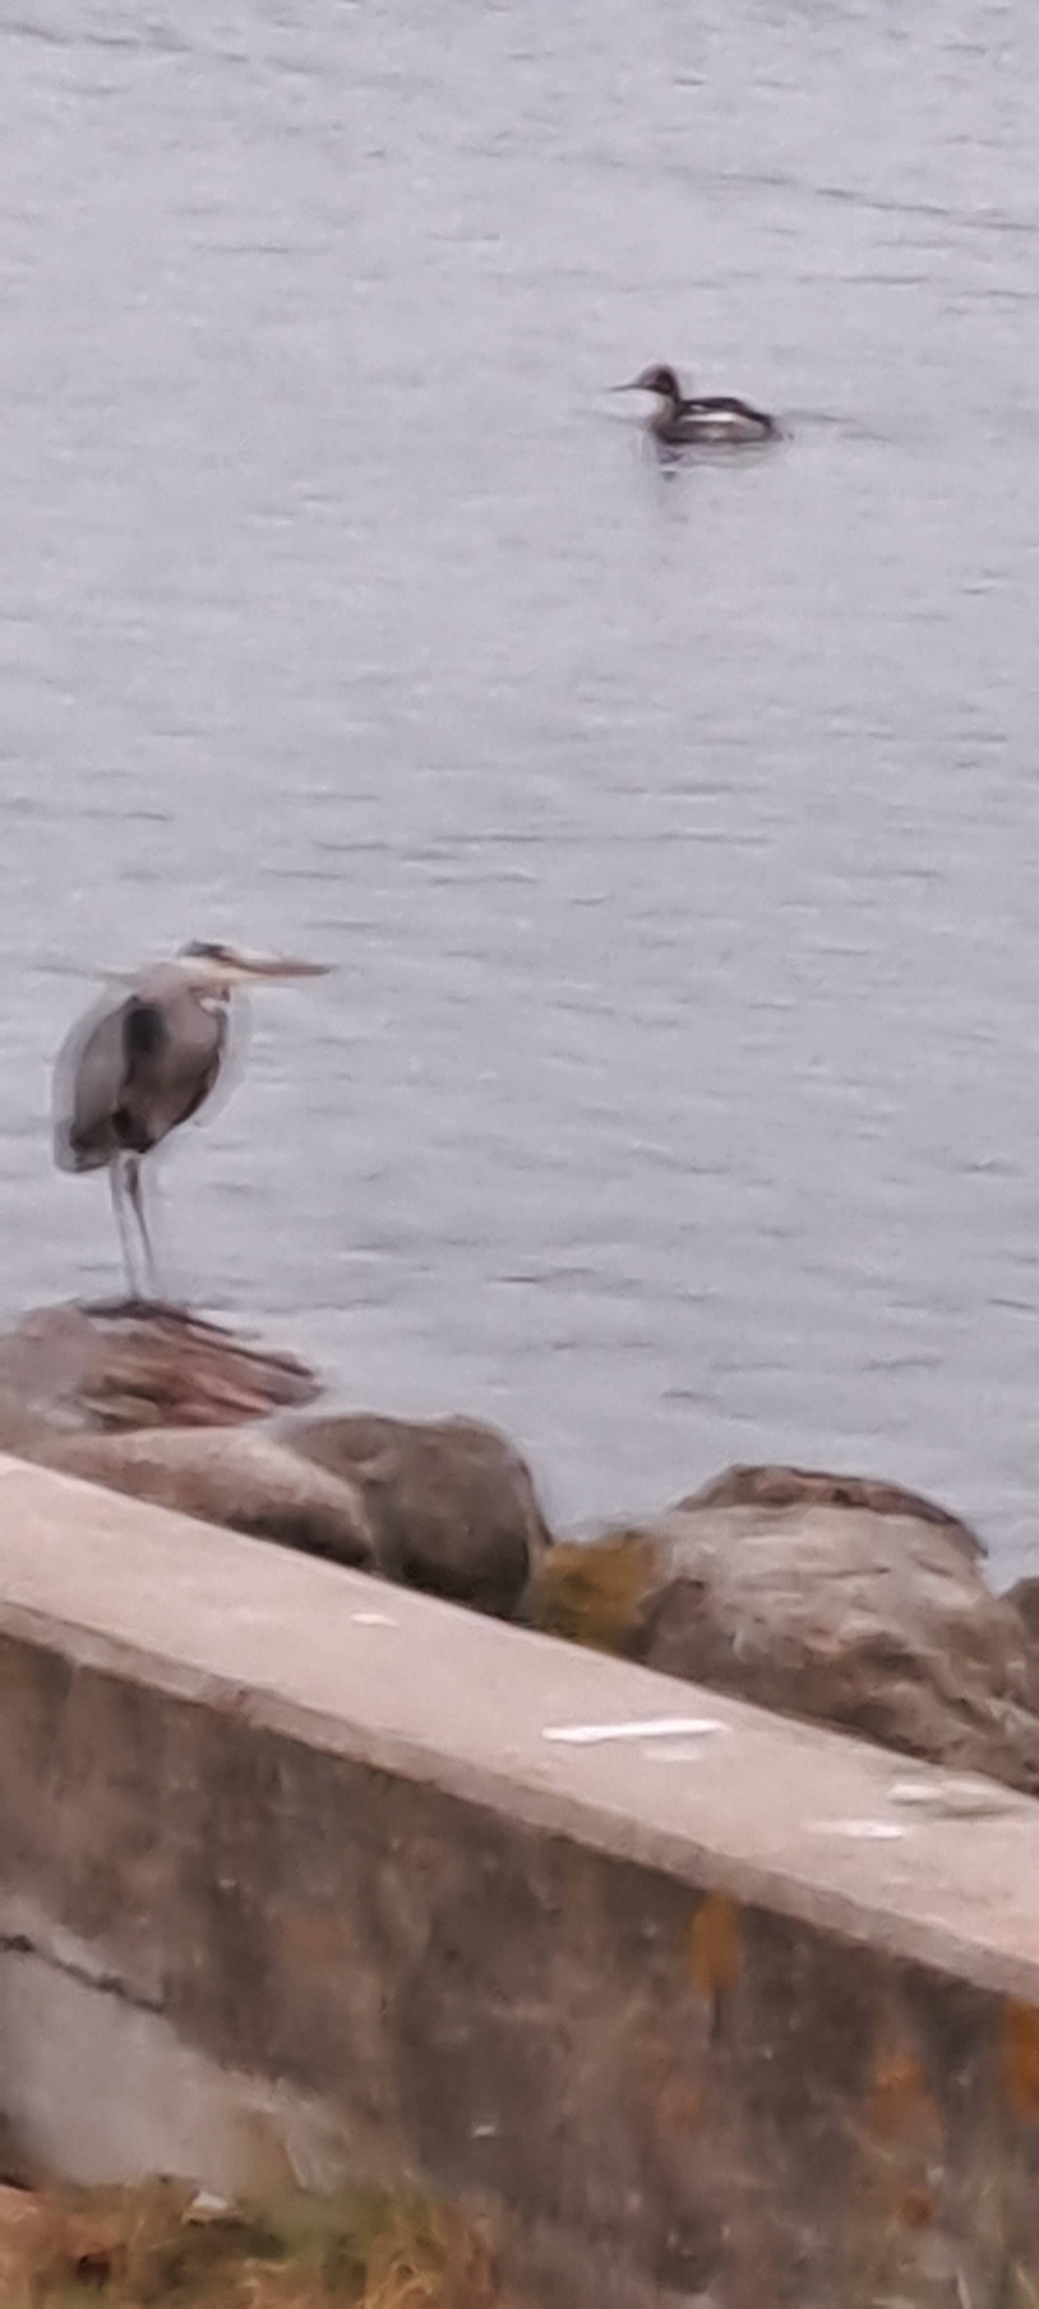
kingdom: Animalia
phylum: Chordata
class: Aves
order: Pelecaniformes
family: Ardeidae
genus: Ardea
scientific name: Ardea cinerea
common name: Fiskehejre
